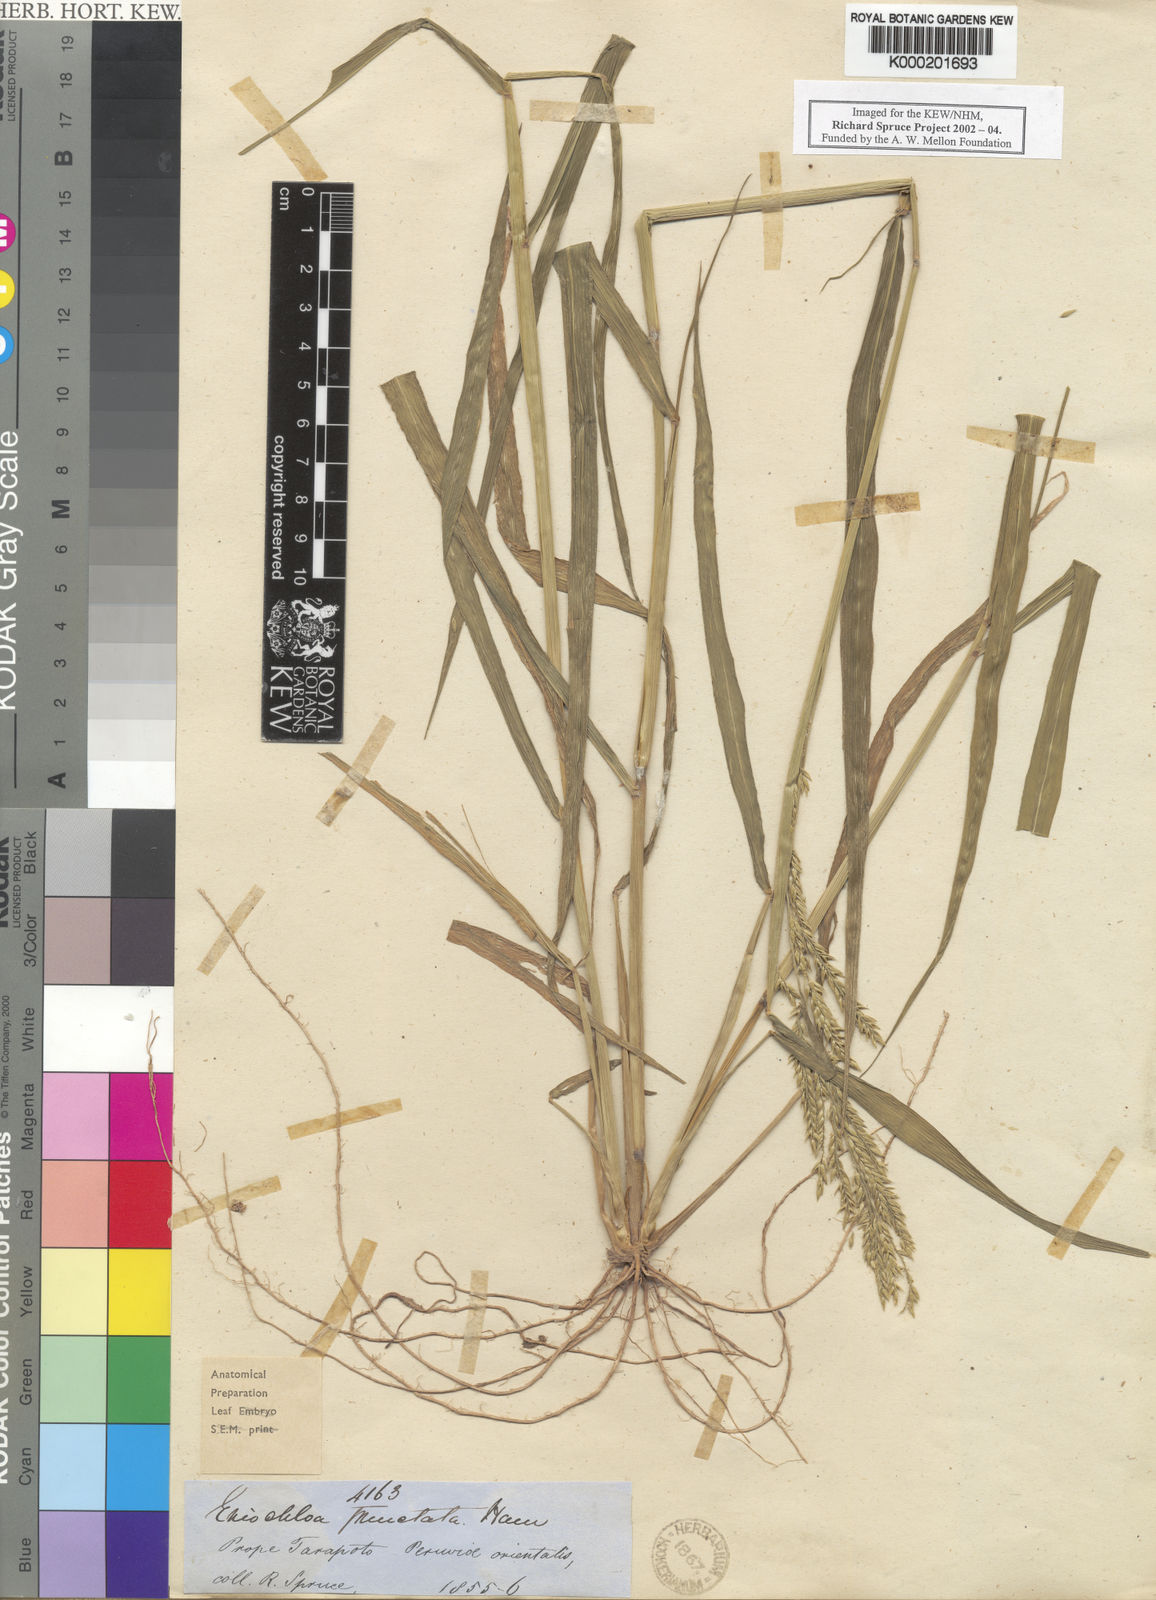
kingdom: Plantae
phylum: Tracheophyta
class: Liliopsida
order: Poales
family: Poaceae
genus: Eriochloa
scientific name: Eriochloa punctata
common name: Louisiana cupgrass
